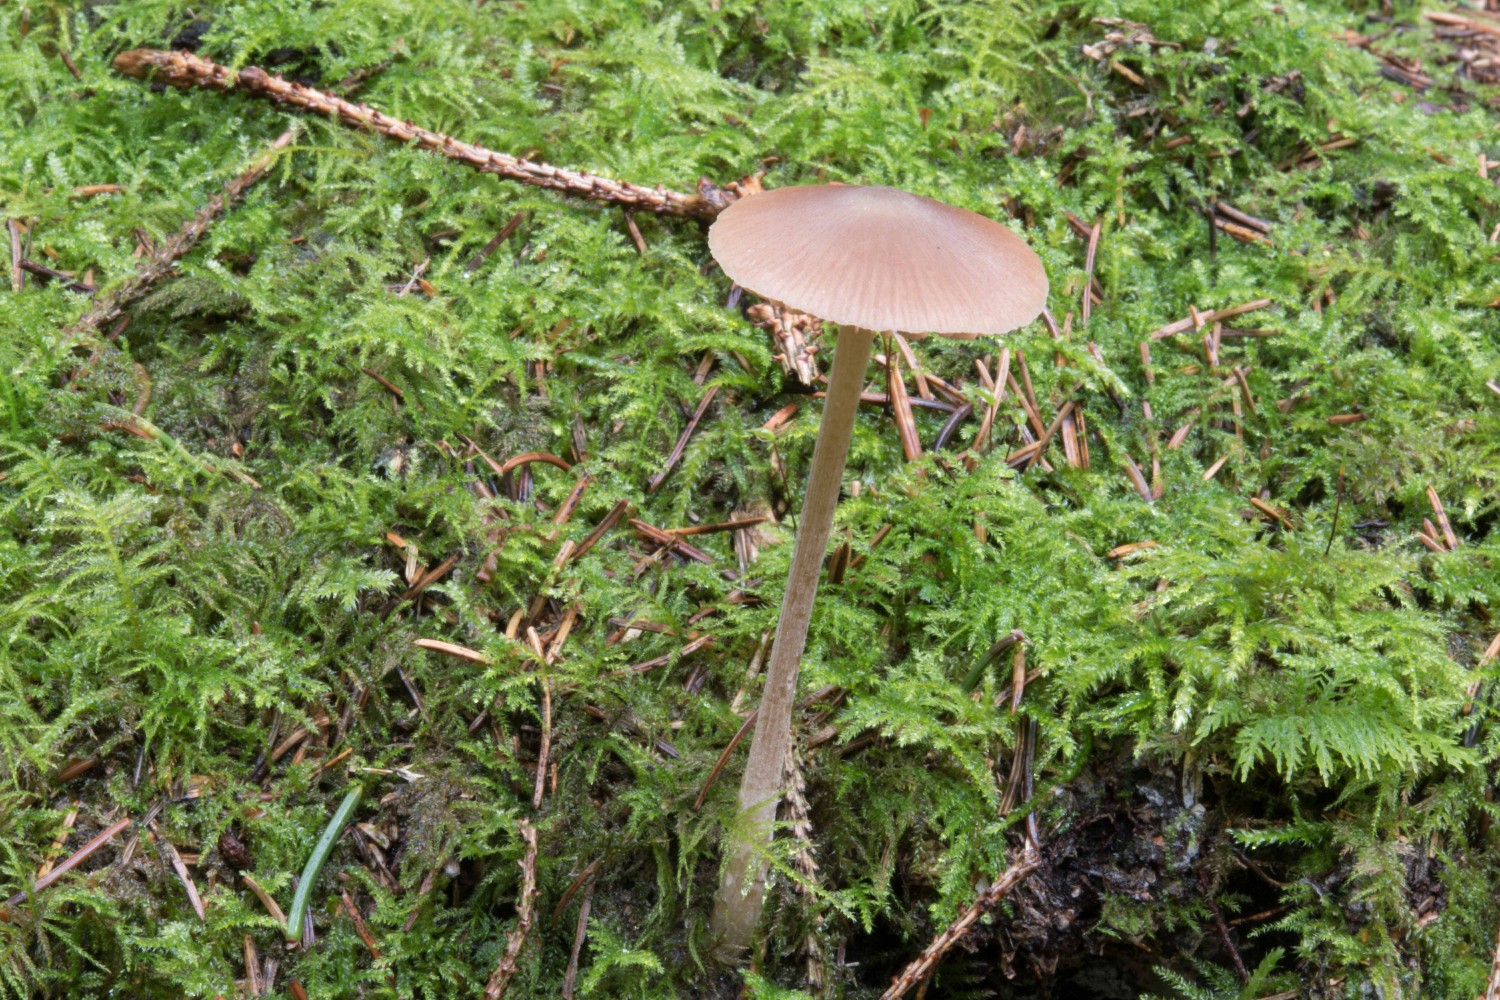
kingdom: Fungi
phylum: Basidiomycota
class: Agaricomycetes
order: Agaricales
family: Entolomataceae
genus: Entoloma
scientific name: Entoloma cetratum
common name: voks-rødblad
